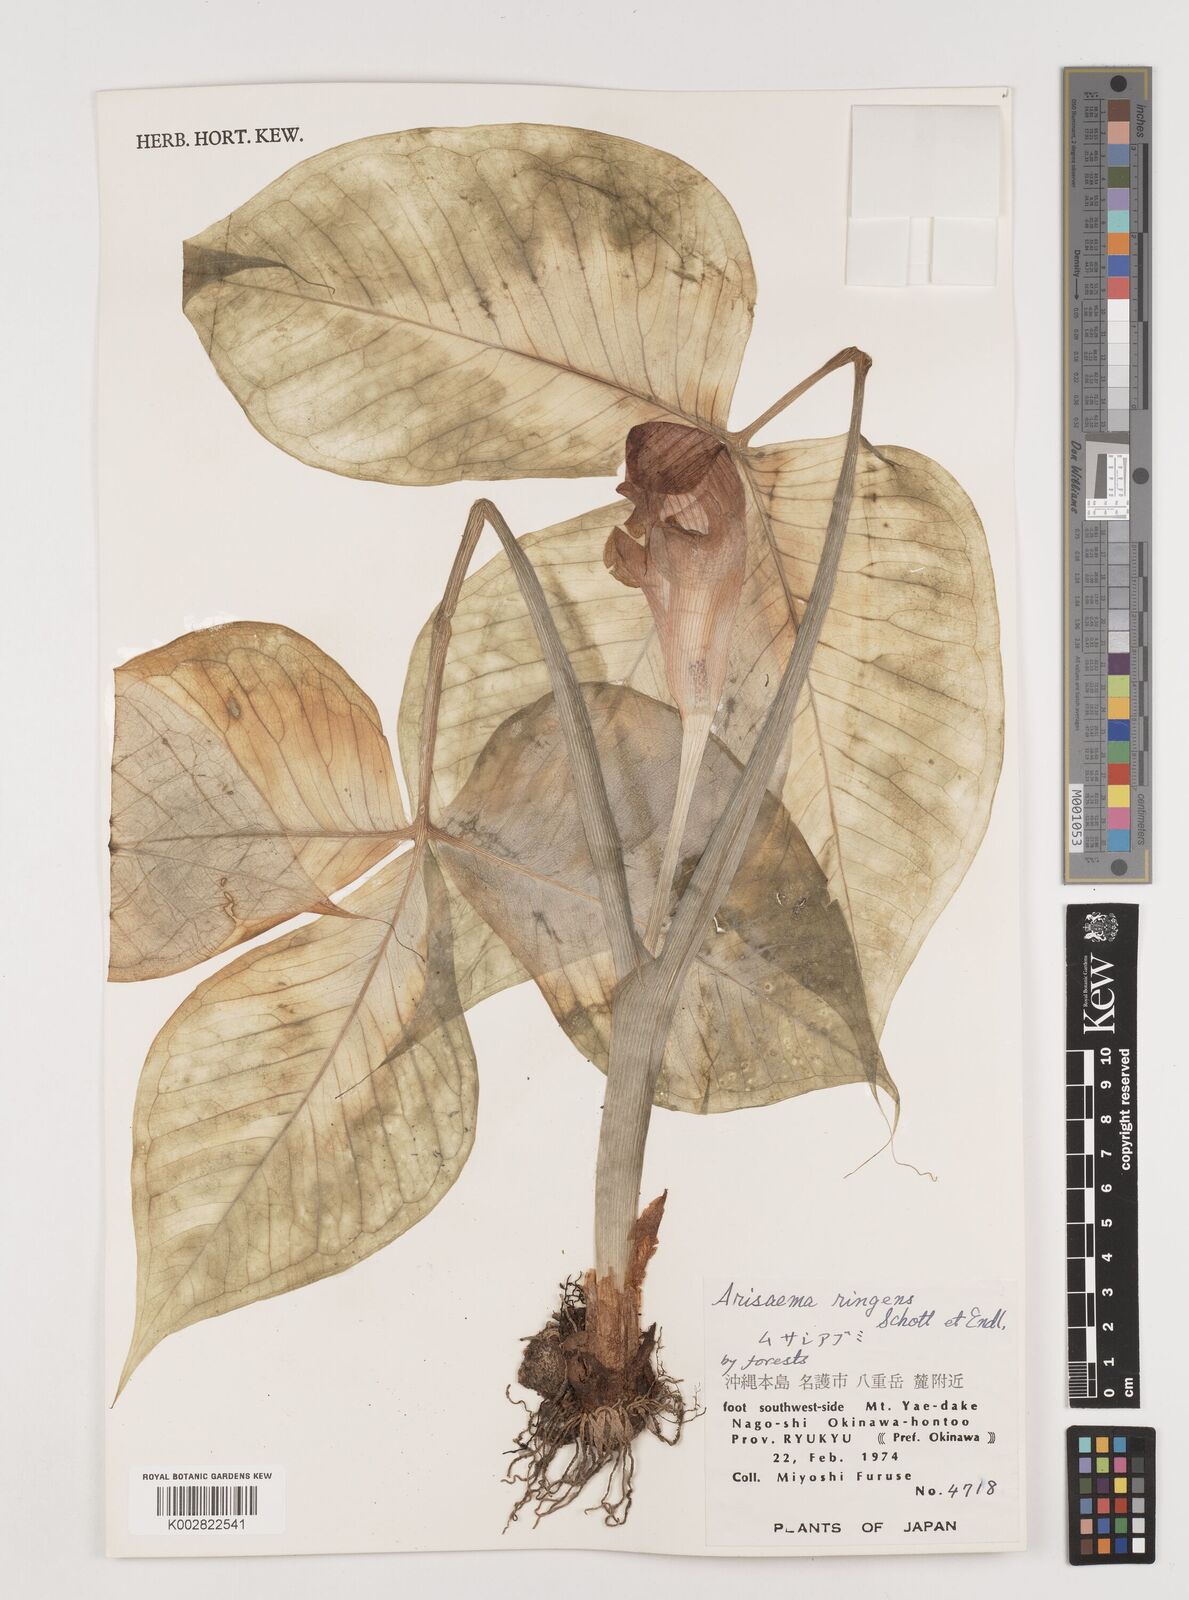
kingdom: Plantae
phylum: Tracheophyta
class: Liliopsida
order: Alismatales
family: Araceae
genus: Arisaema
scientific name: Arisaema ringens
